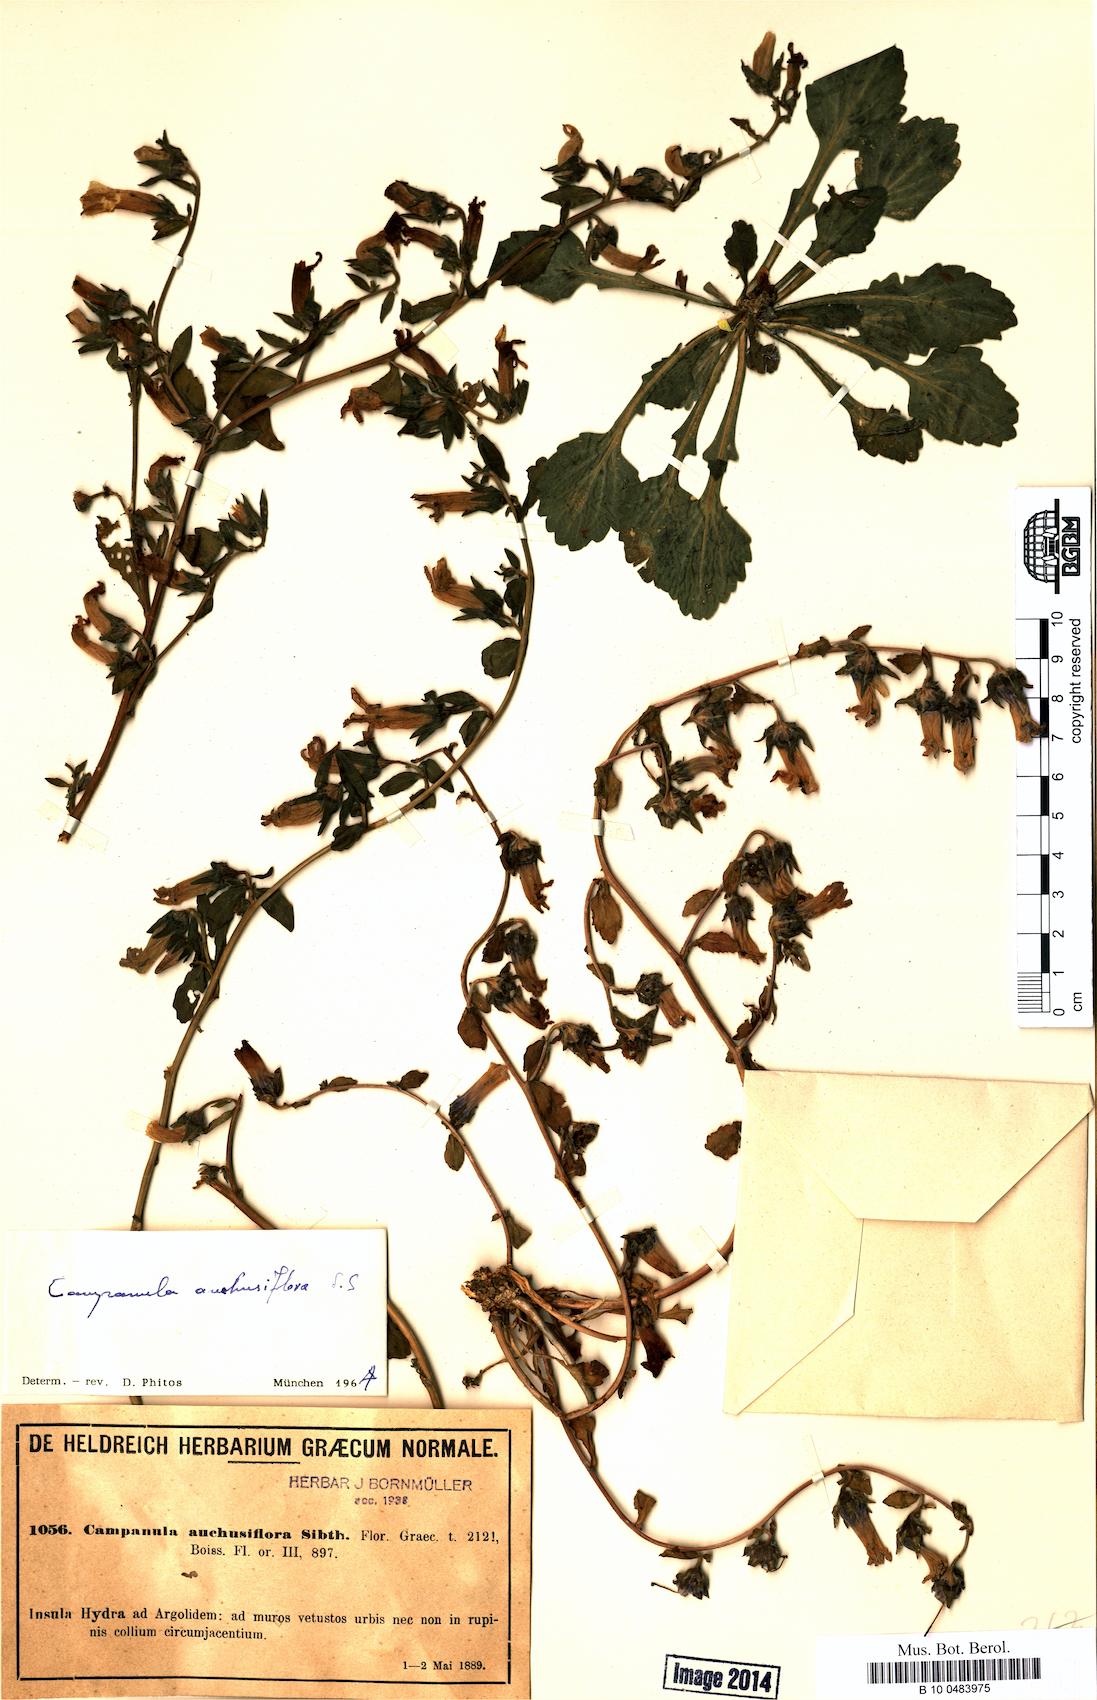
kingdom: Plantae
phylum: Tracheophyta
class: Magnoliopsida
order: Asterales
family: Campanulaceae
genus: Campanula
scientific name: Campanula anchusiflora
